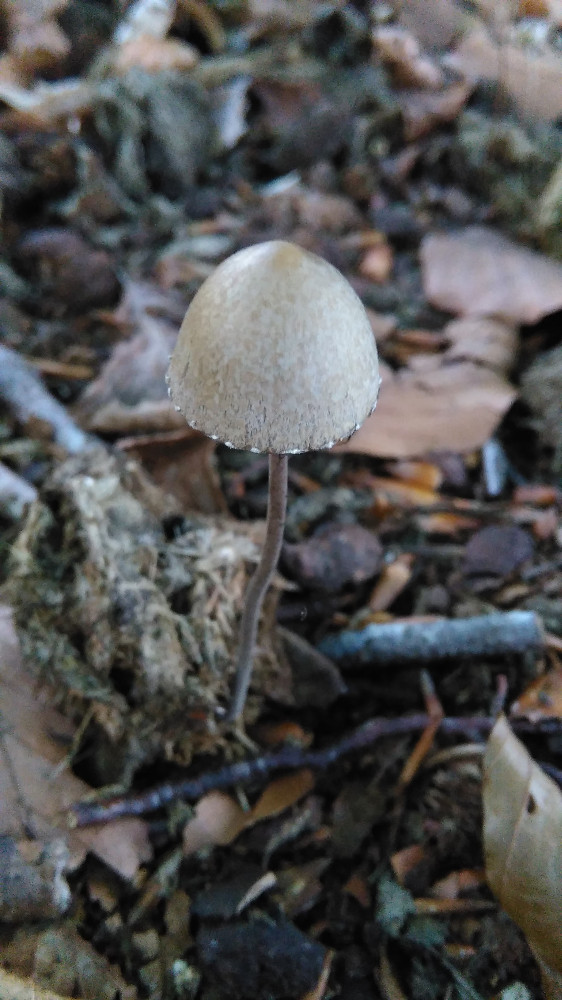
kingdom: Fungi
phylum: Basidiomycota
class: Agaricomycetes
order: Agaricales
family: Bolbitiaceae
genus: Panaeolus
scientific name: Panaeolus papilionaceus
